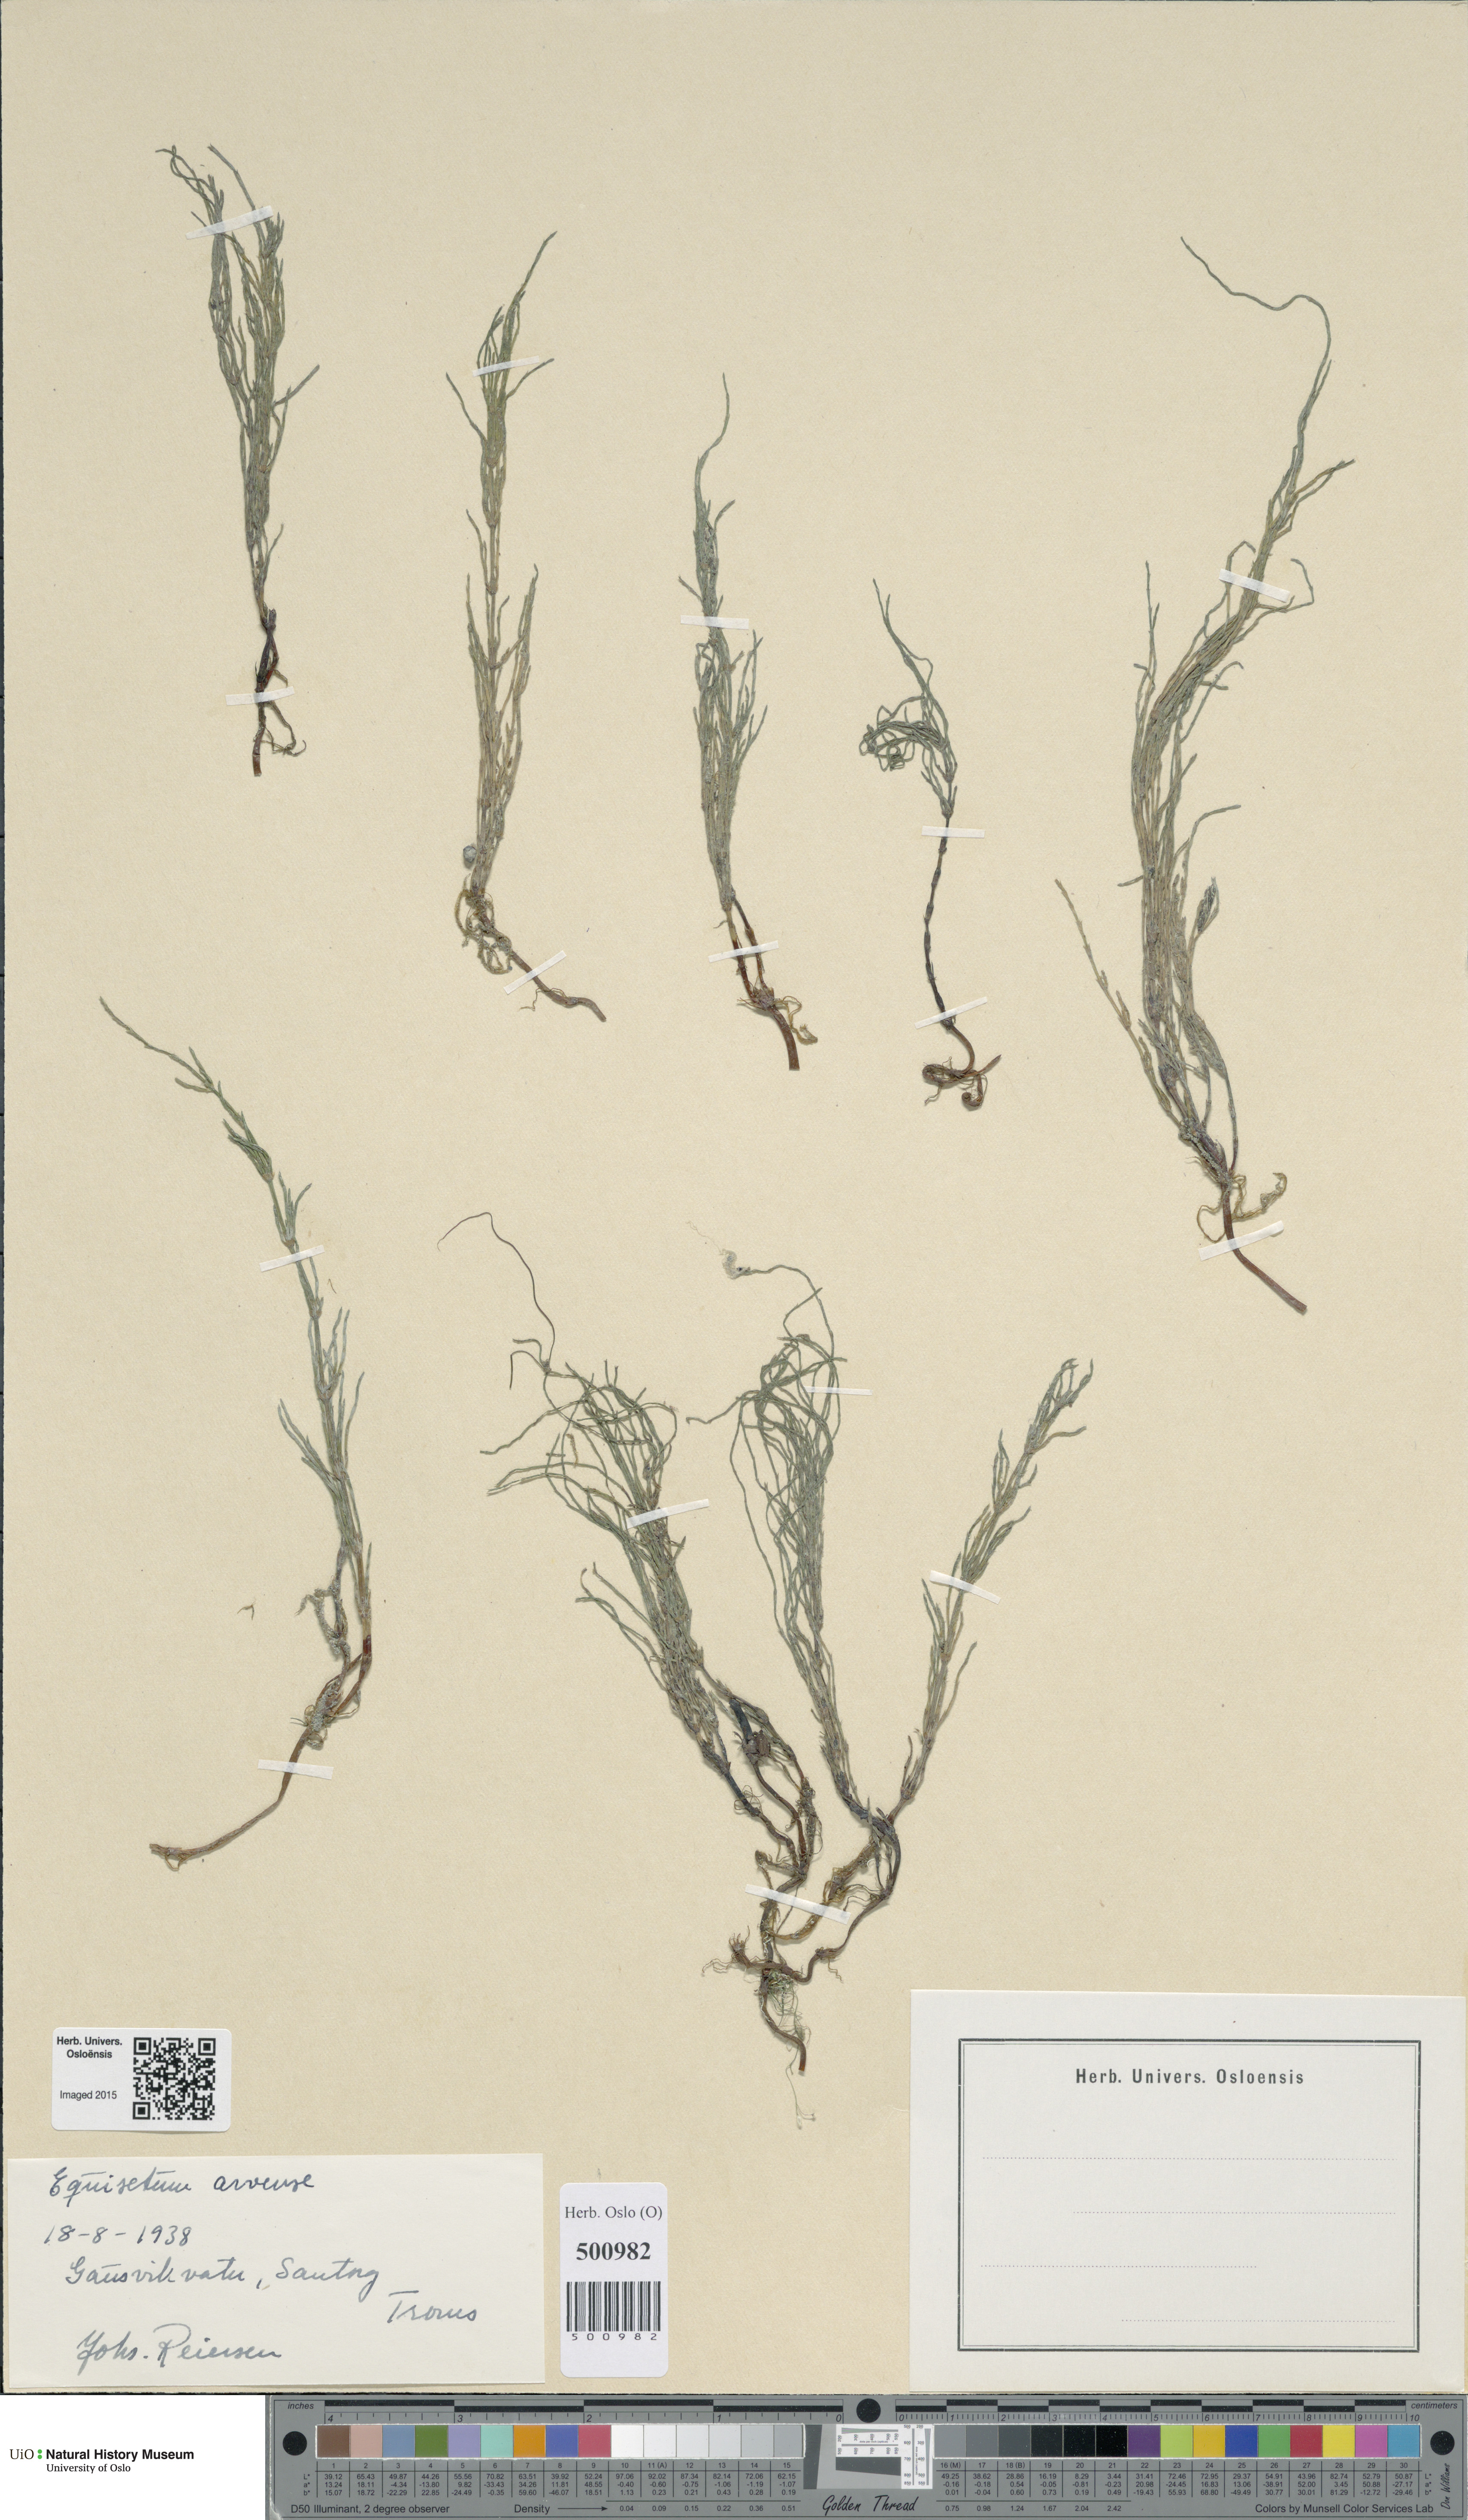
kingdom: Plantae
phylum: Tracheophyta
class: Polypodiopsida
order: Equisetales
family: Equisetaceae
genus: Equisetum
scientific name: Equisetum arvense
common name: Field horsetail
